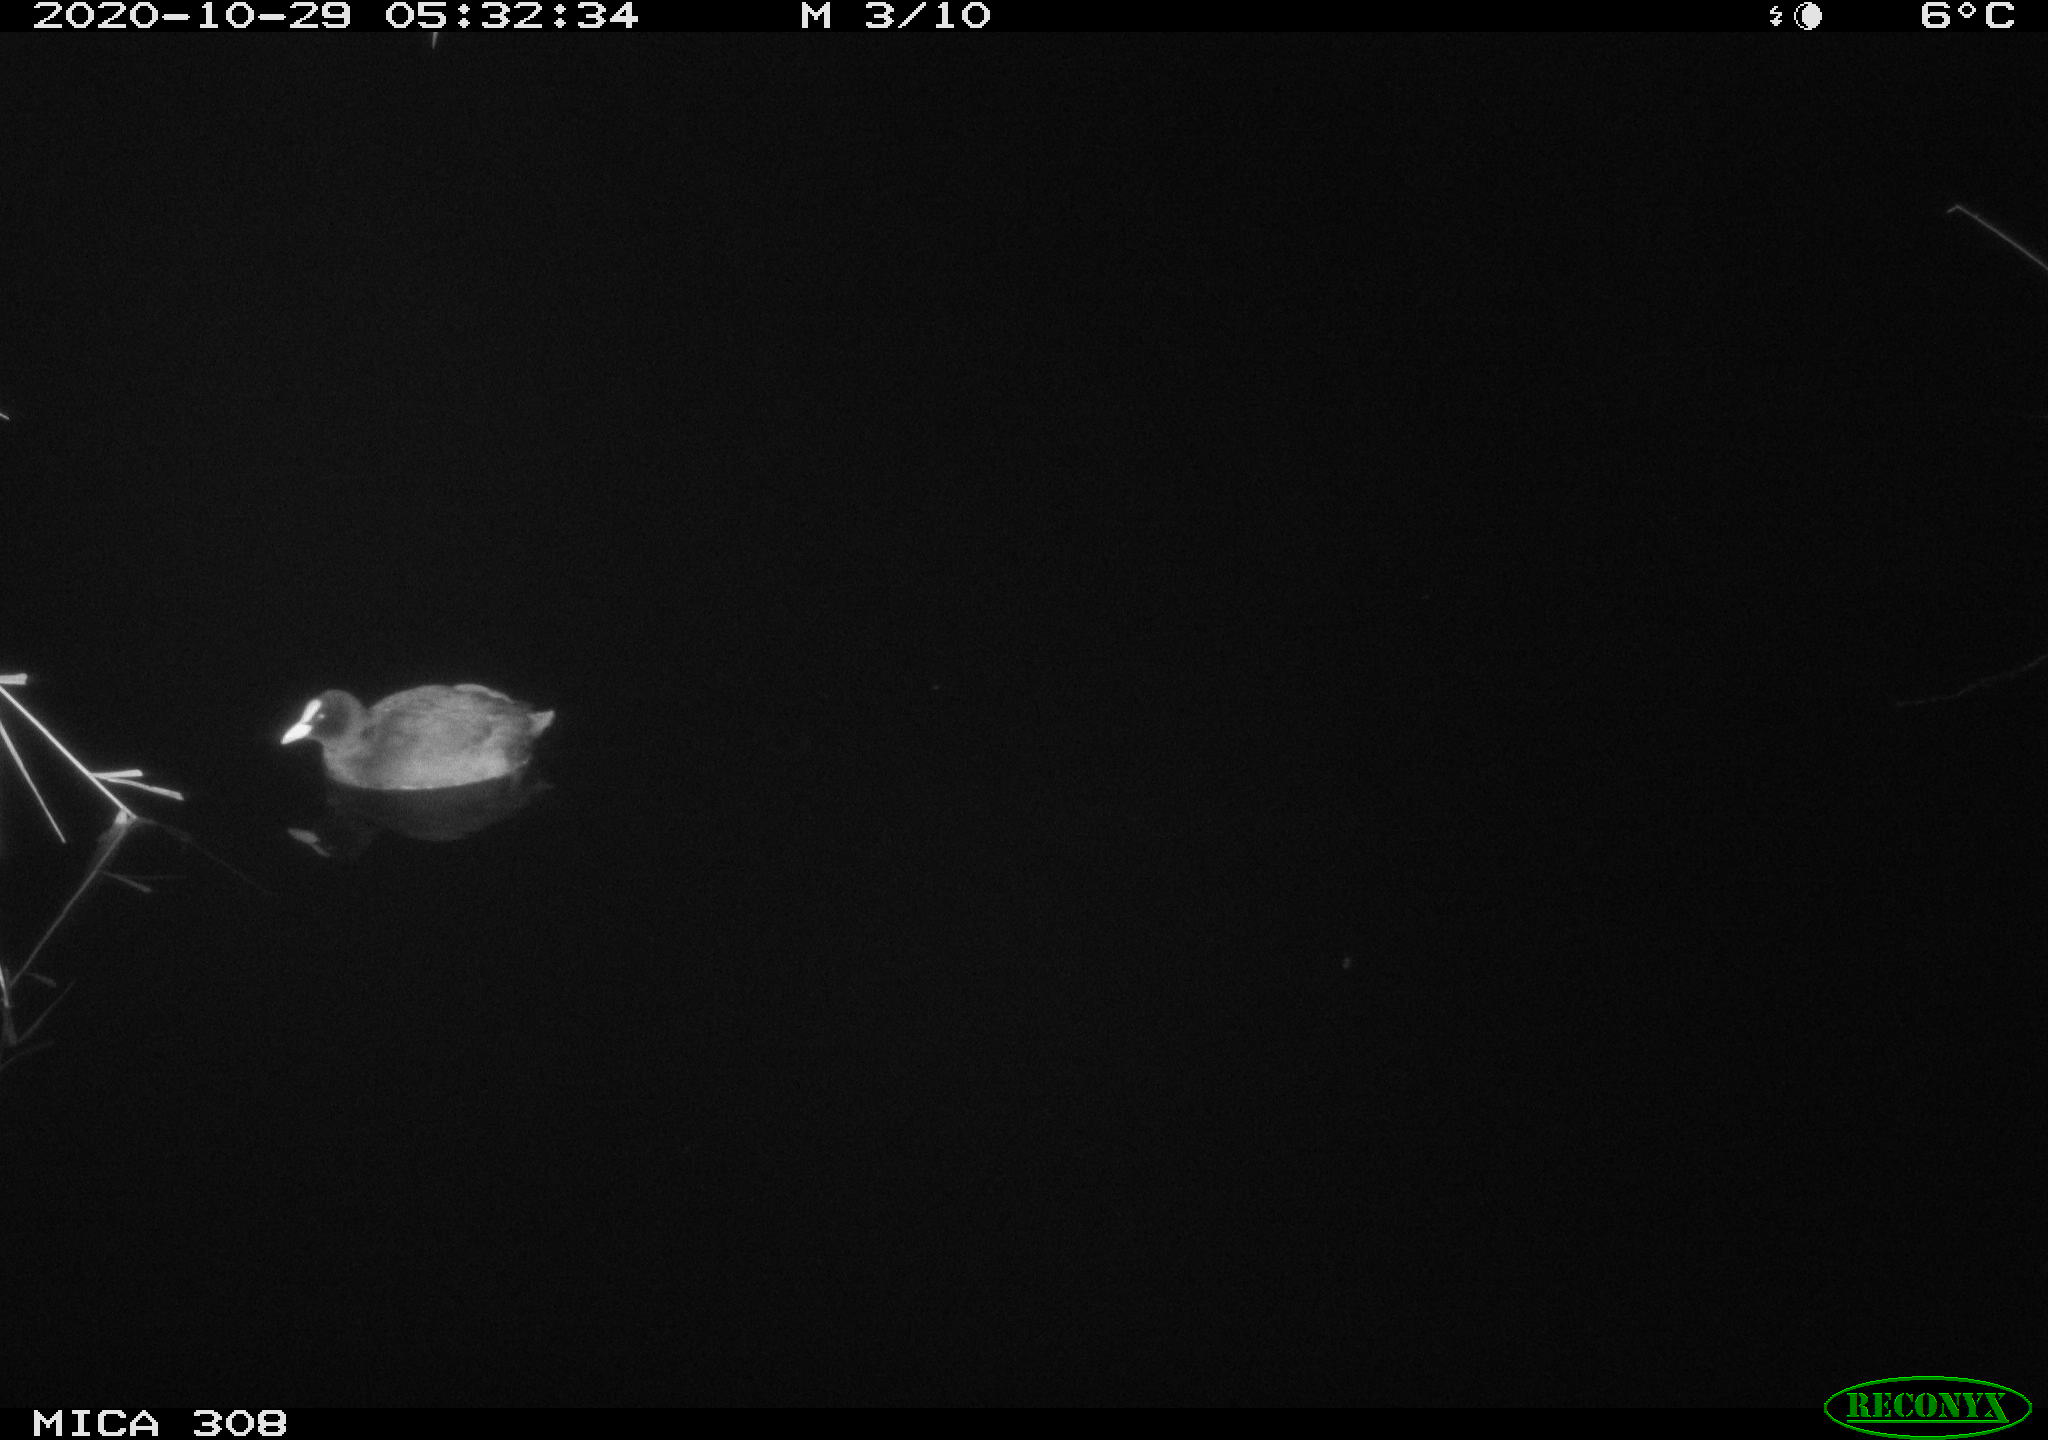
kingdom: Animalia
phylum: Chordata
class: Aves
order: Gruiformes
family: Rallidae
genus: Fulica
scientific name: Fulica atra
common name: Eurasian coot
